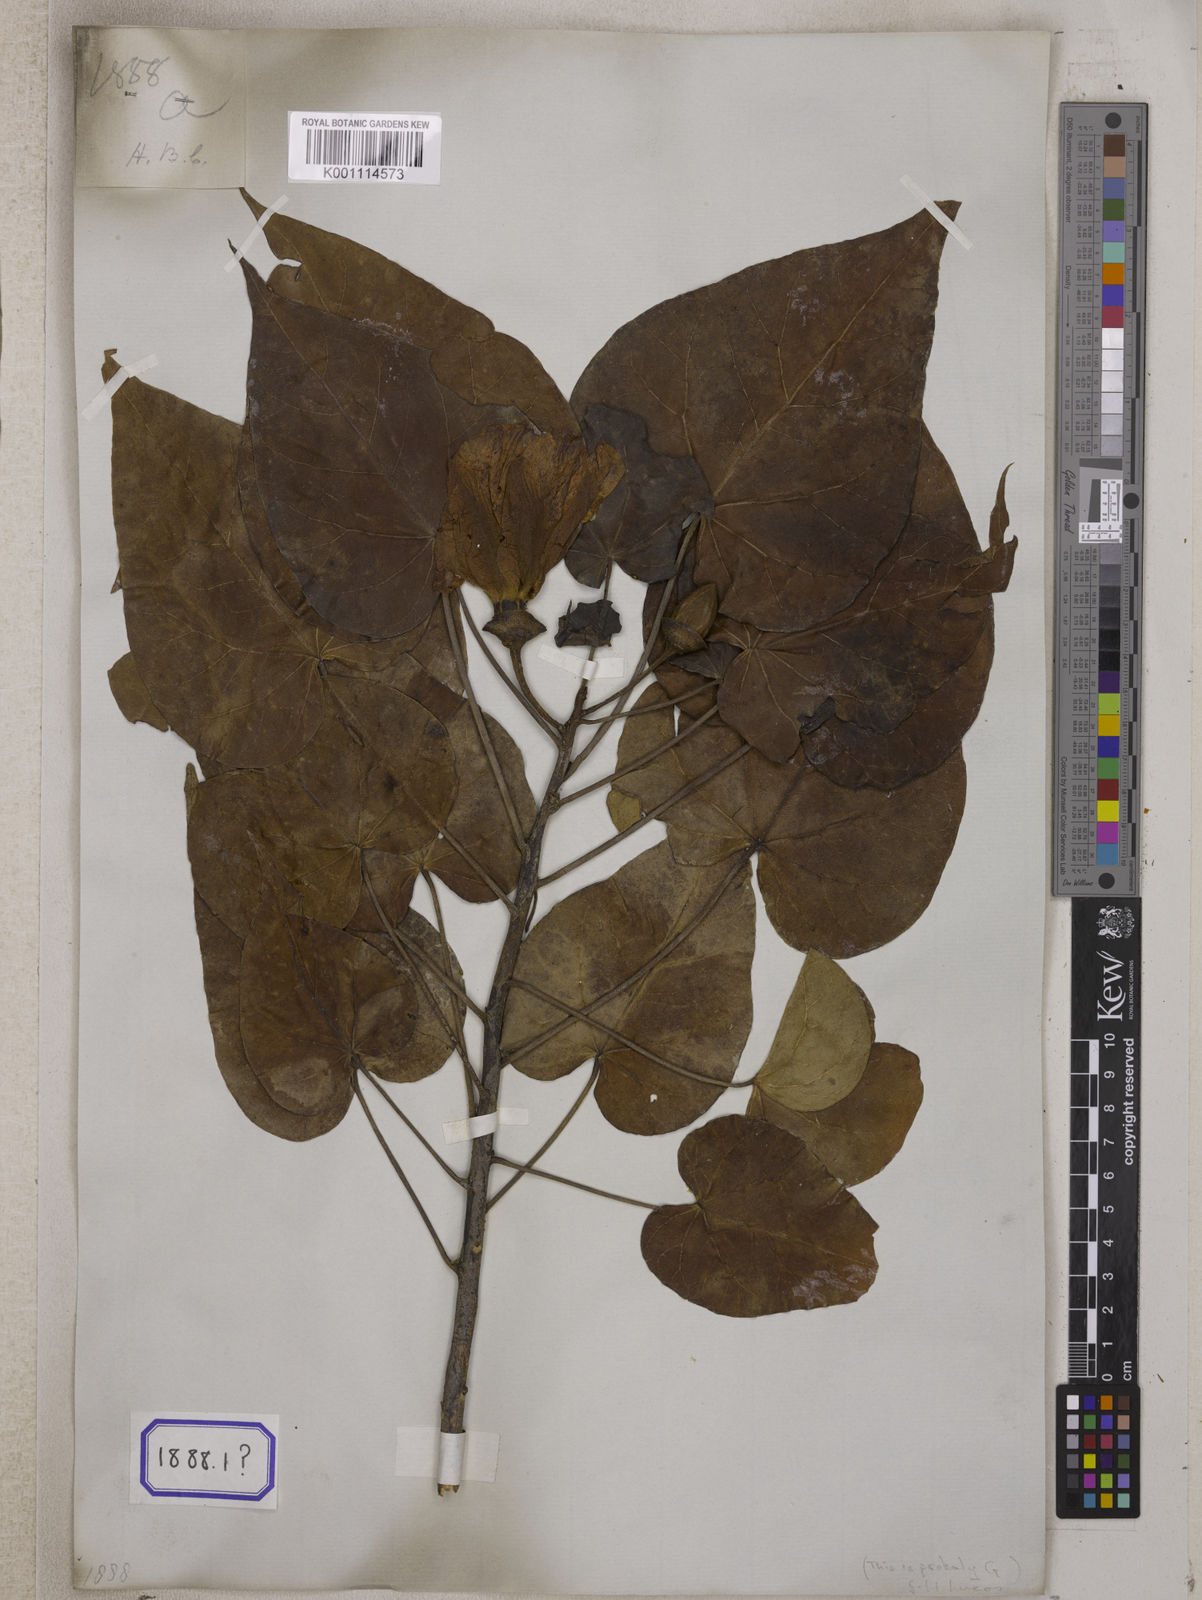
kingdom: Plantae
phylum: Tracheophyta
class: Magnoliopsida
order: Malvales
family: Malvaceae
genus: Thespesia
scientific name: Thespesia populnea
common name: Seaside mahoe
